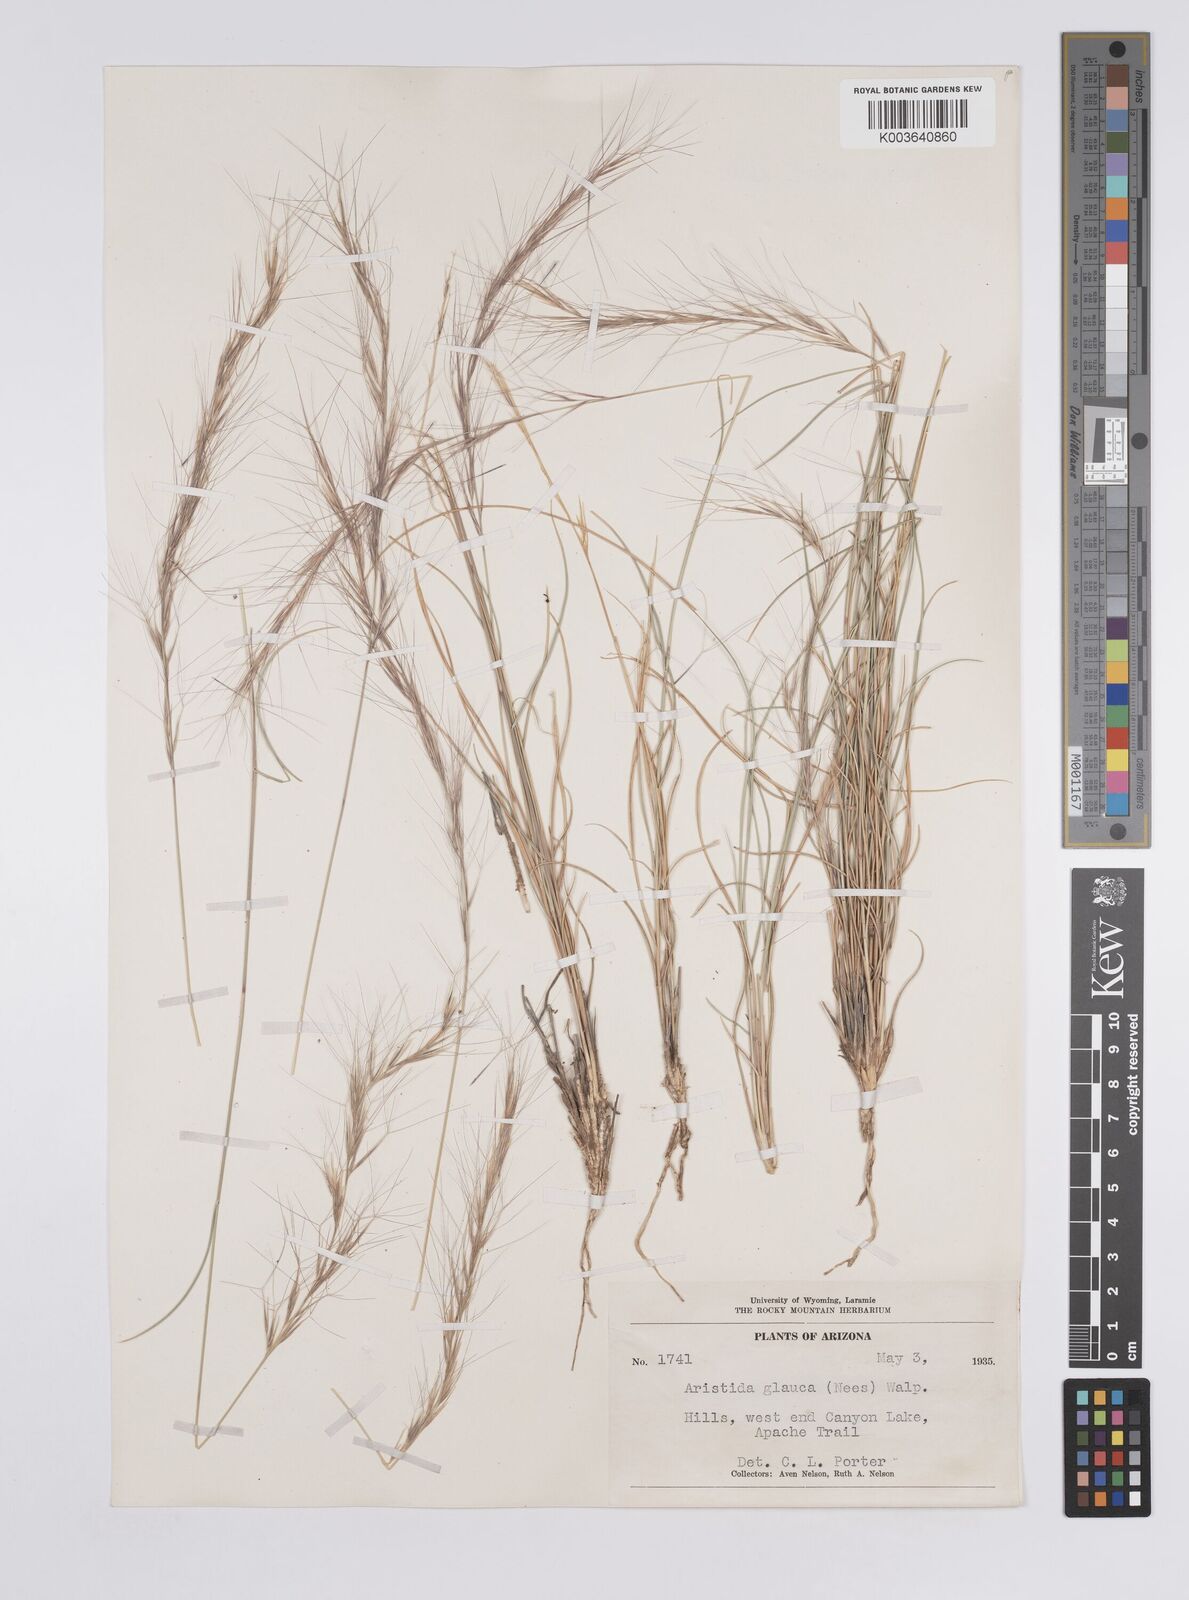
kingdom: Plantae
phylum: Tracheophyta
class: Liliopsida
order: Poales
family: Poaceae
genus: Aristida
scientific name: Aristida purpurea
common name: Purple threeawn
